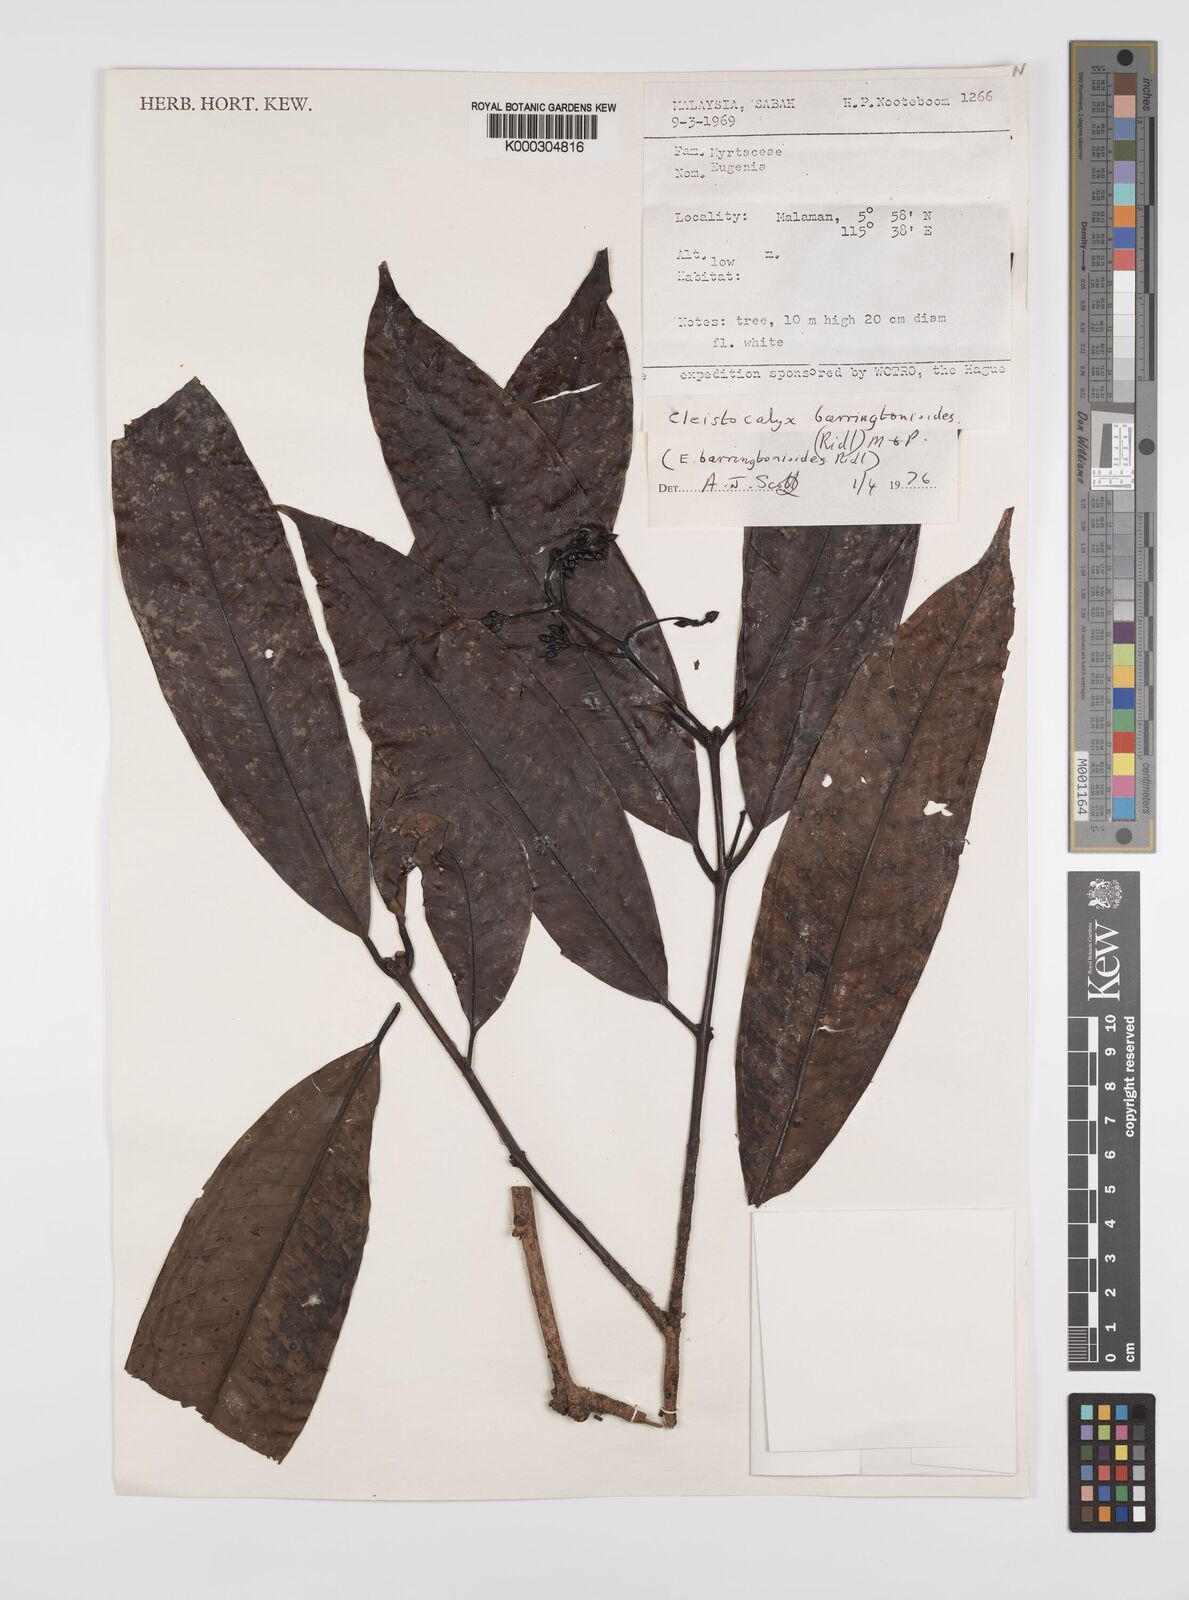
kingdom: Plantae
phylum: Tracheophyta
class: Magnoliopsida
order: Myrtales
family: Myrtaceae
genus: Syzygium
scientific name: Syzygium barringtonioides
